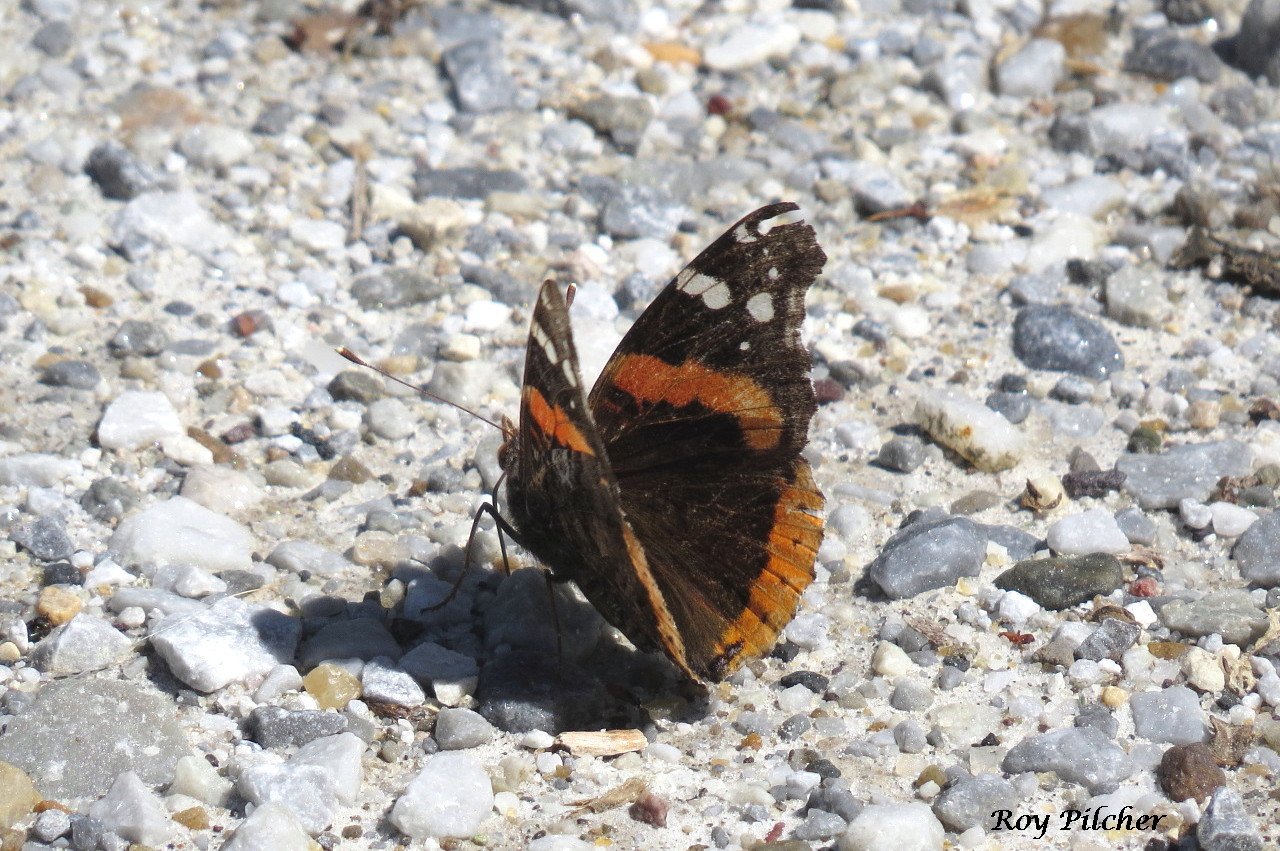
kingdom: Animalia
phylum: Arthropoda
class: Insecta
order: Lepidoptera
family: Nymphalidae
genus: Vanessa
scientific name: Vanessa atalanta
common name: Red Admiral
